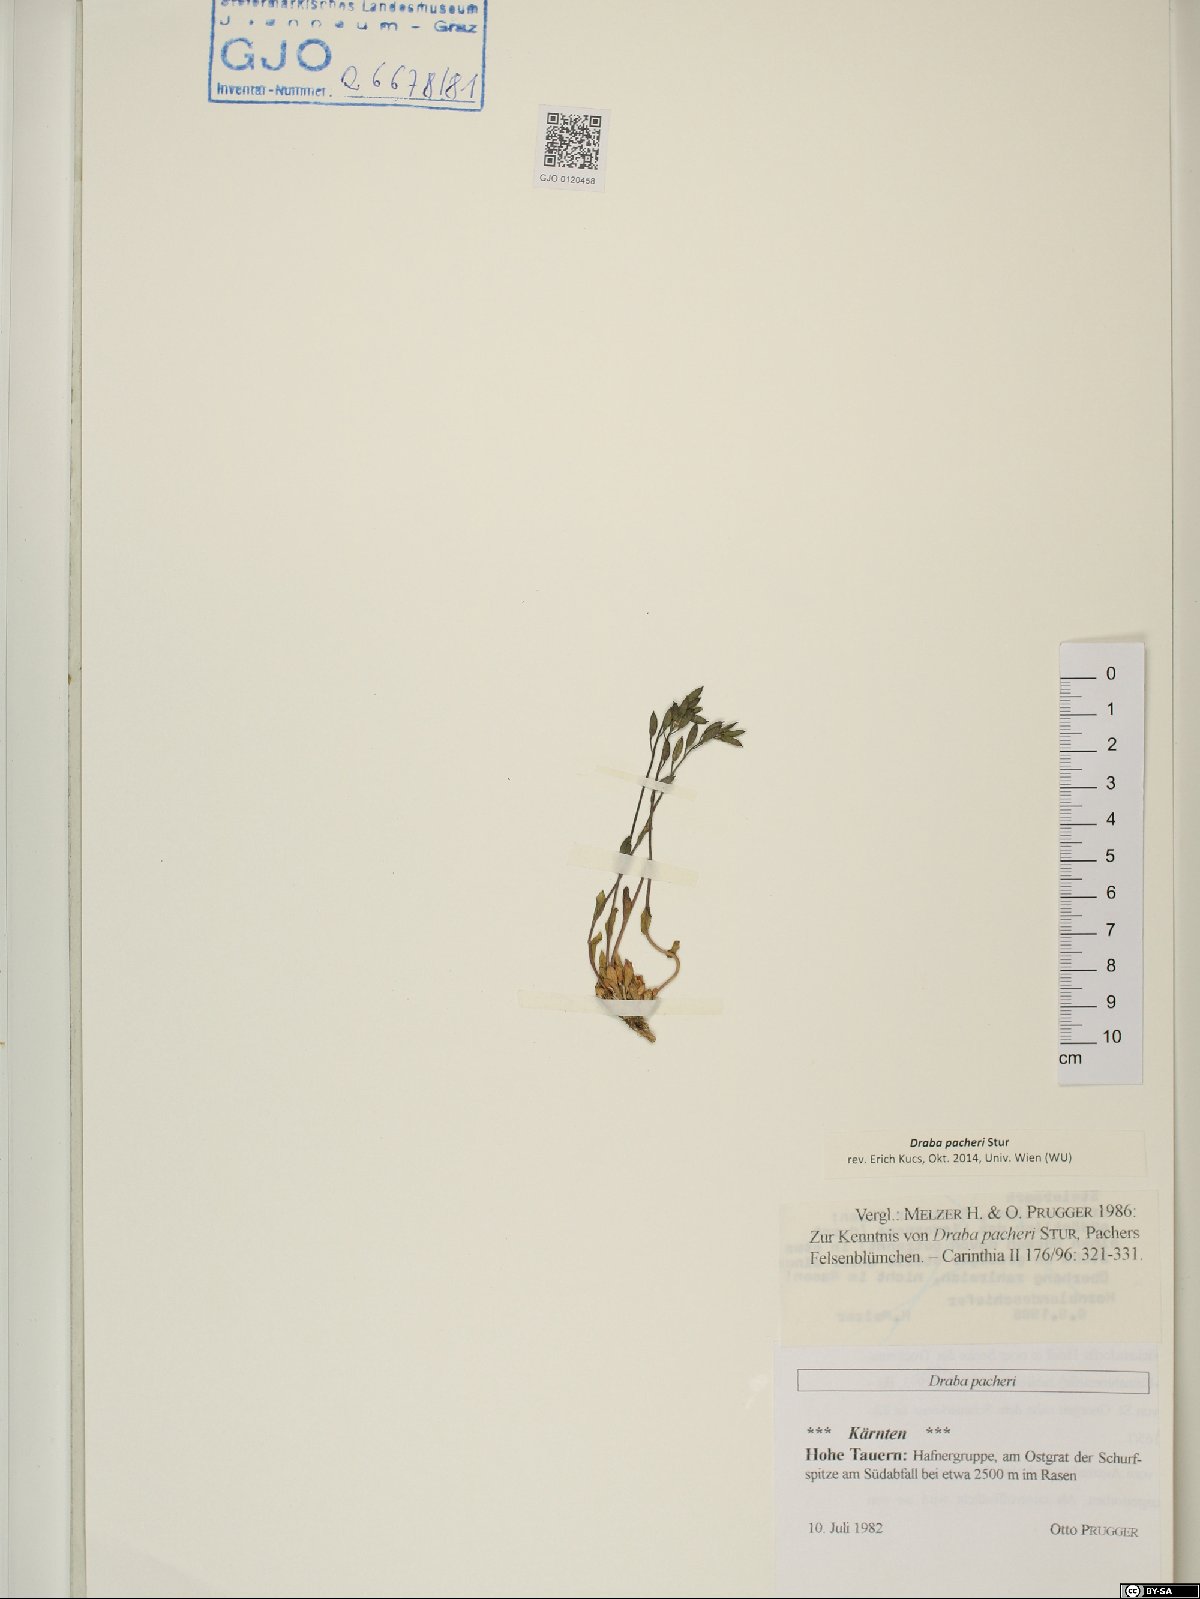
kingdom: Plantae
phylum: Tracheophyta
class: Magnoliopsida
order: Brassicales
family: Brassicaceae
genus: Draba
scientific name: Draba pacheri
